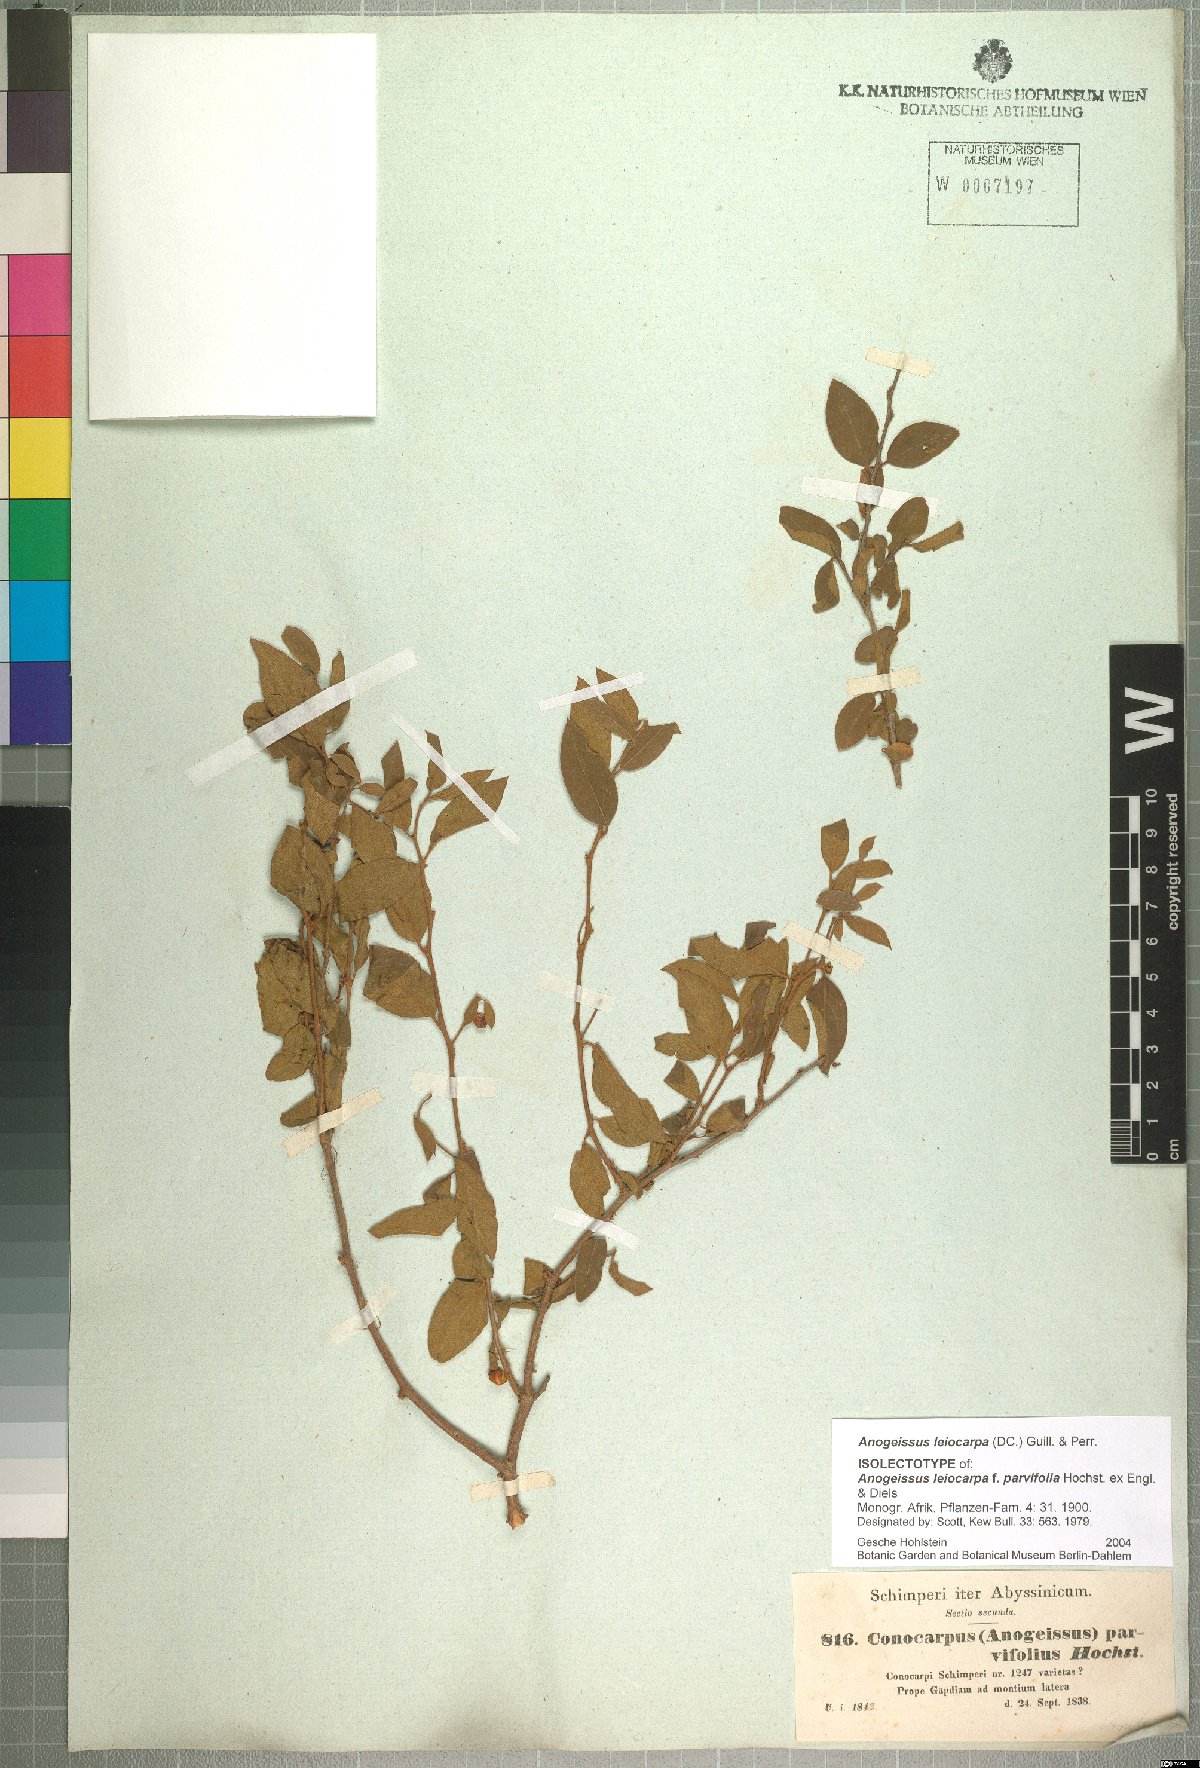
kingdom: Plantae
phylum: Tracheophyta
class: Magnoliopsida
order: Myrtales
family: Combretaceae
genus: Terminalia
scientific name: Terminalia leiocarpa
